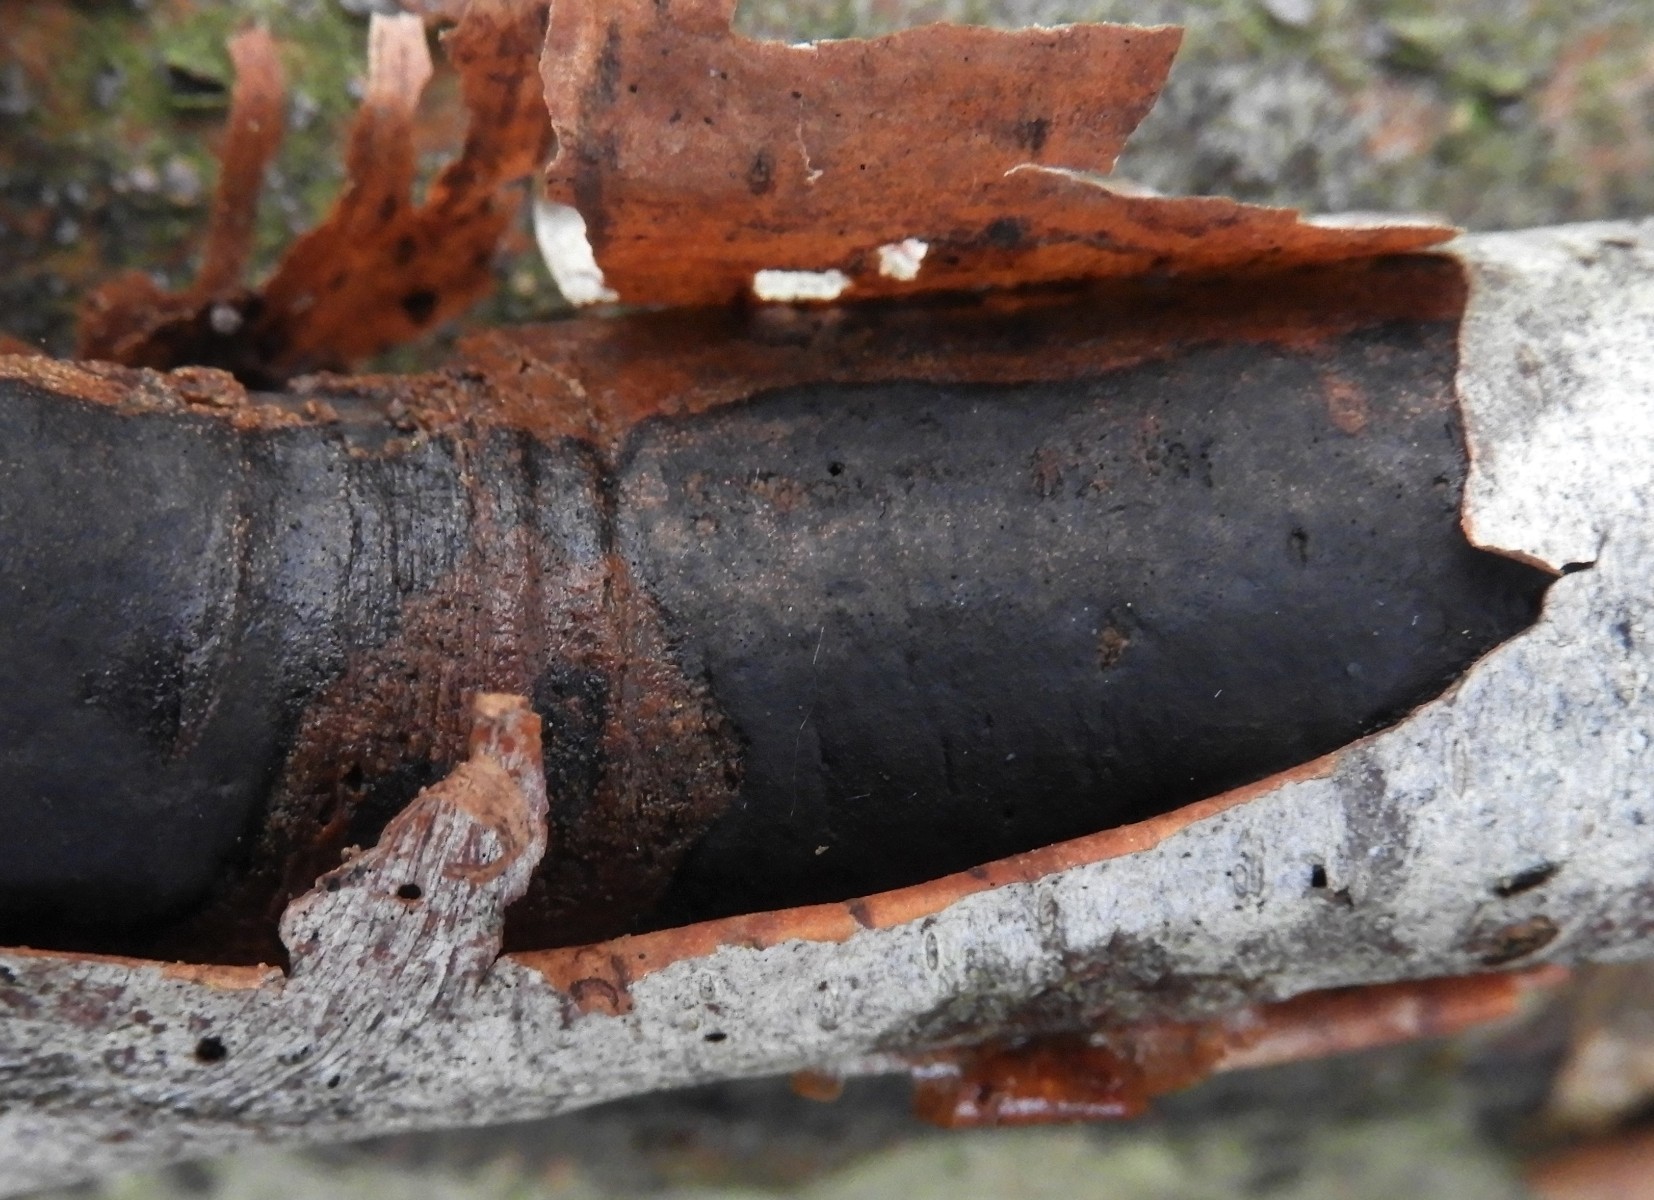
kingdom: Fungi
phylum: Ascomycota
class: Sordariomycetes
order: Xylariales
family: Diatrypaceae
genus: Diatrype
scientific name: Diatrype decorticata
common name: barksprænger-kulskorpe
